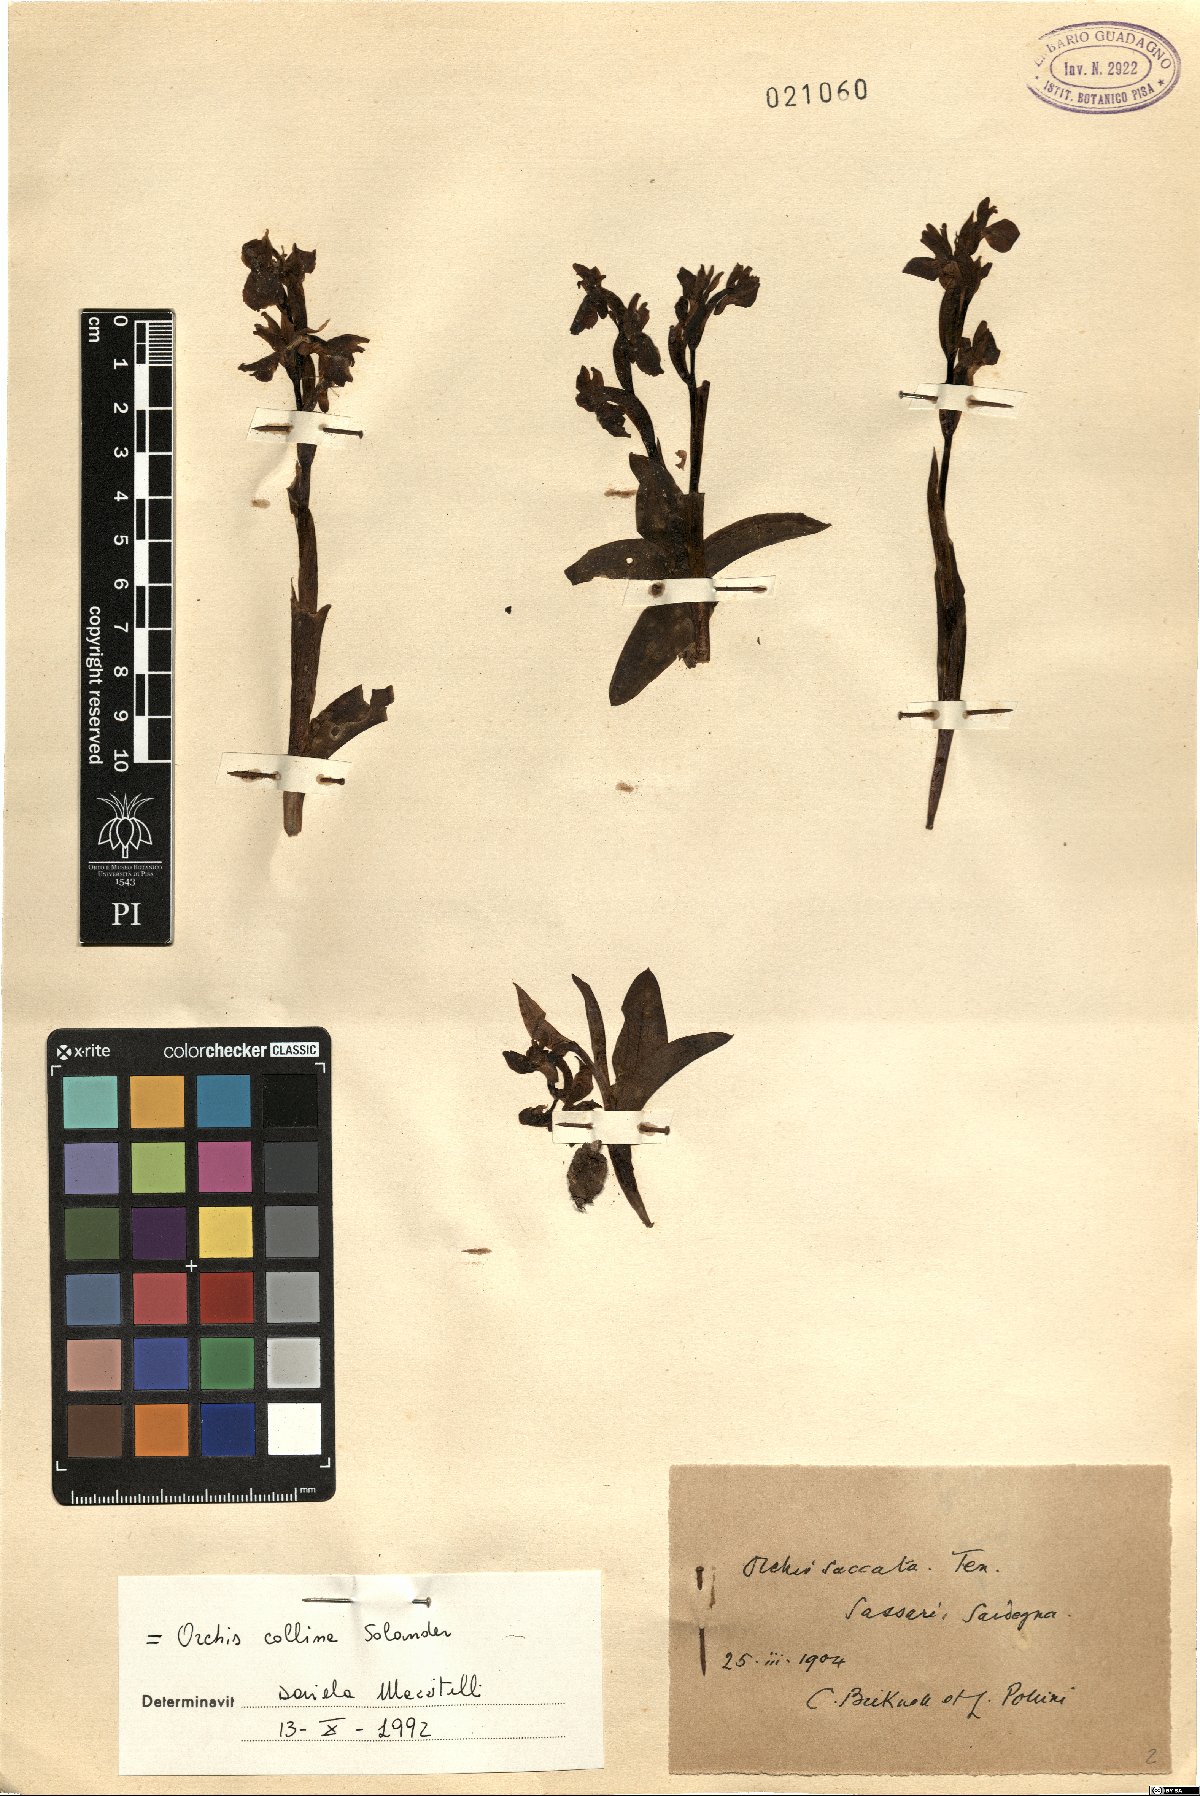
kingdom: Plantae
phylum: Tracheophyta
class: Liliopsida
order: Asparagales
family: Orchidaceae
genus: Anacamptis
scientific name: Anacamptis collina
